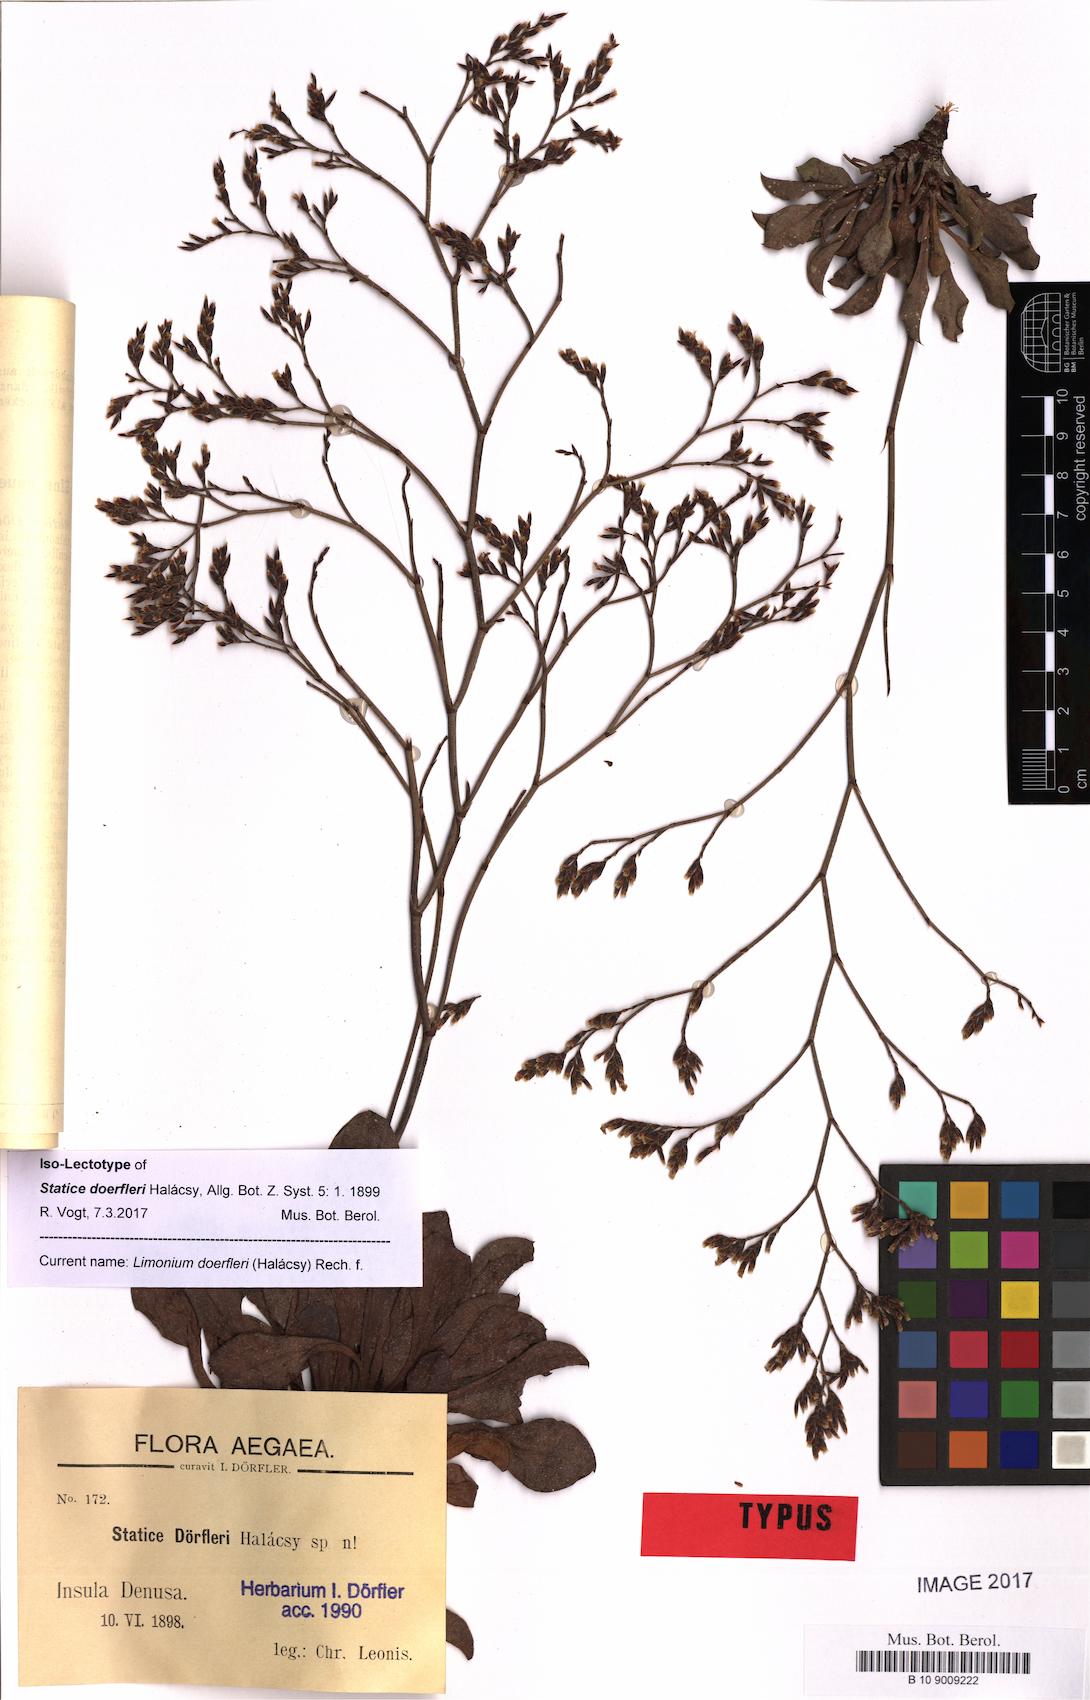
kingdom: Plantae
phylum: Tracheophyta
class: Magnoliopsida
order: Caryophyllales
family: Plumbaginaceae
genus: Limonium
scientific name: Limonium doerfleri
